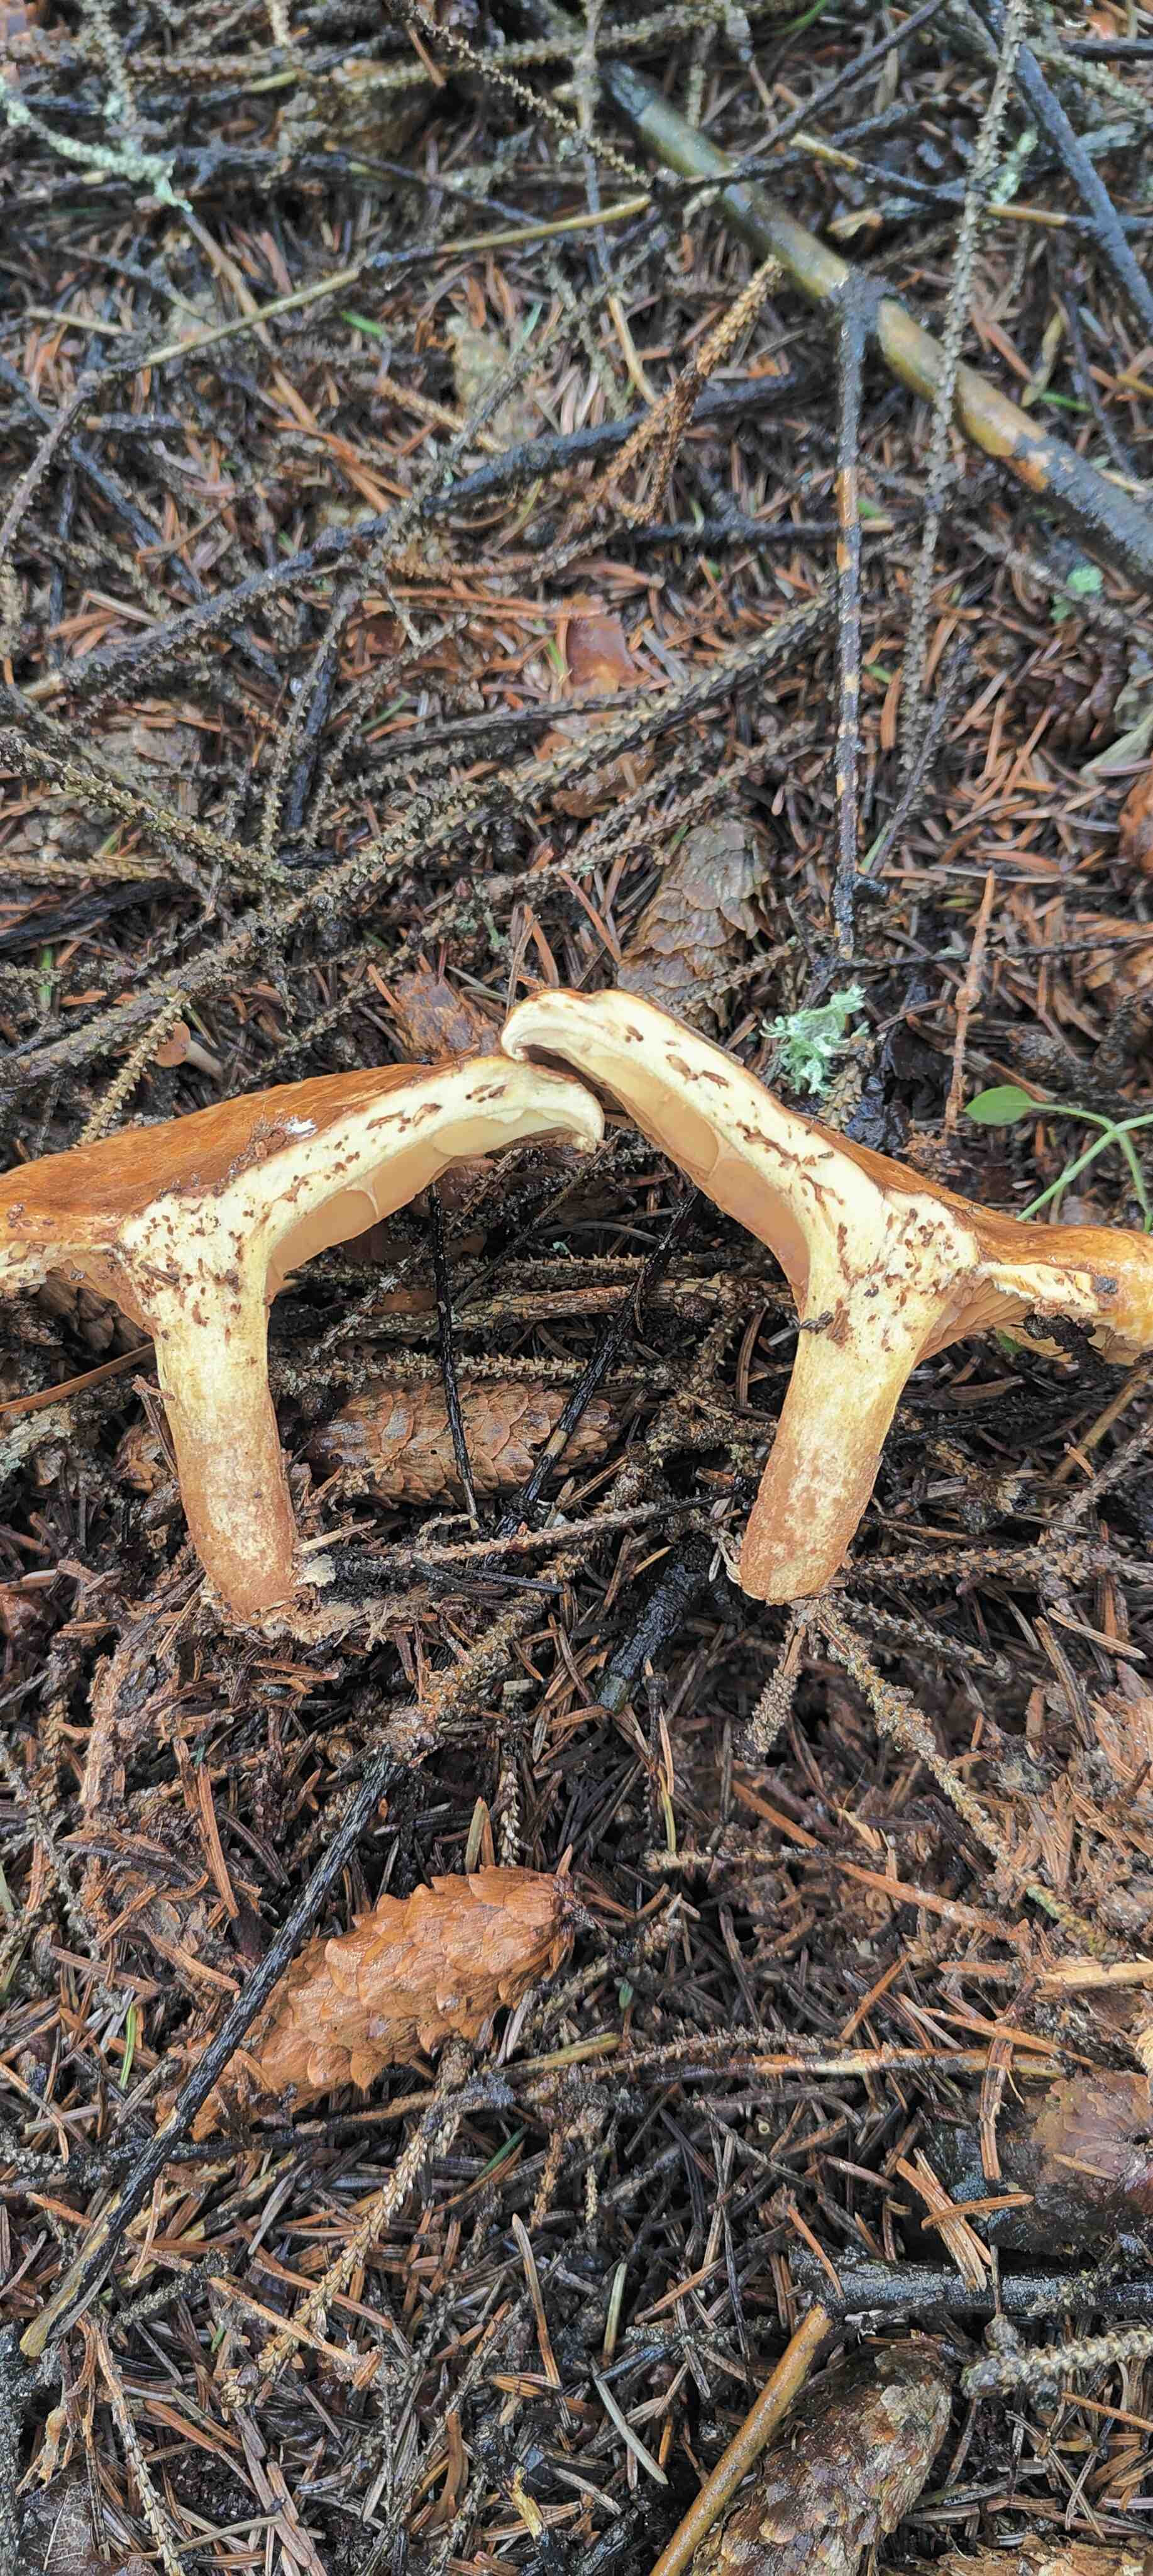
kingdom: Fungi
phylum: Basidiomycota
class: Agaricomycetes
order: Boletales
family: Paxillaceae
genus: Paxillus
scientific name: Paxillus involutus
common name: almindelig netbladhat
